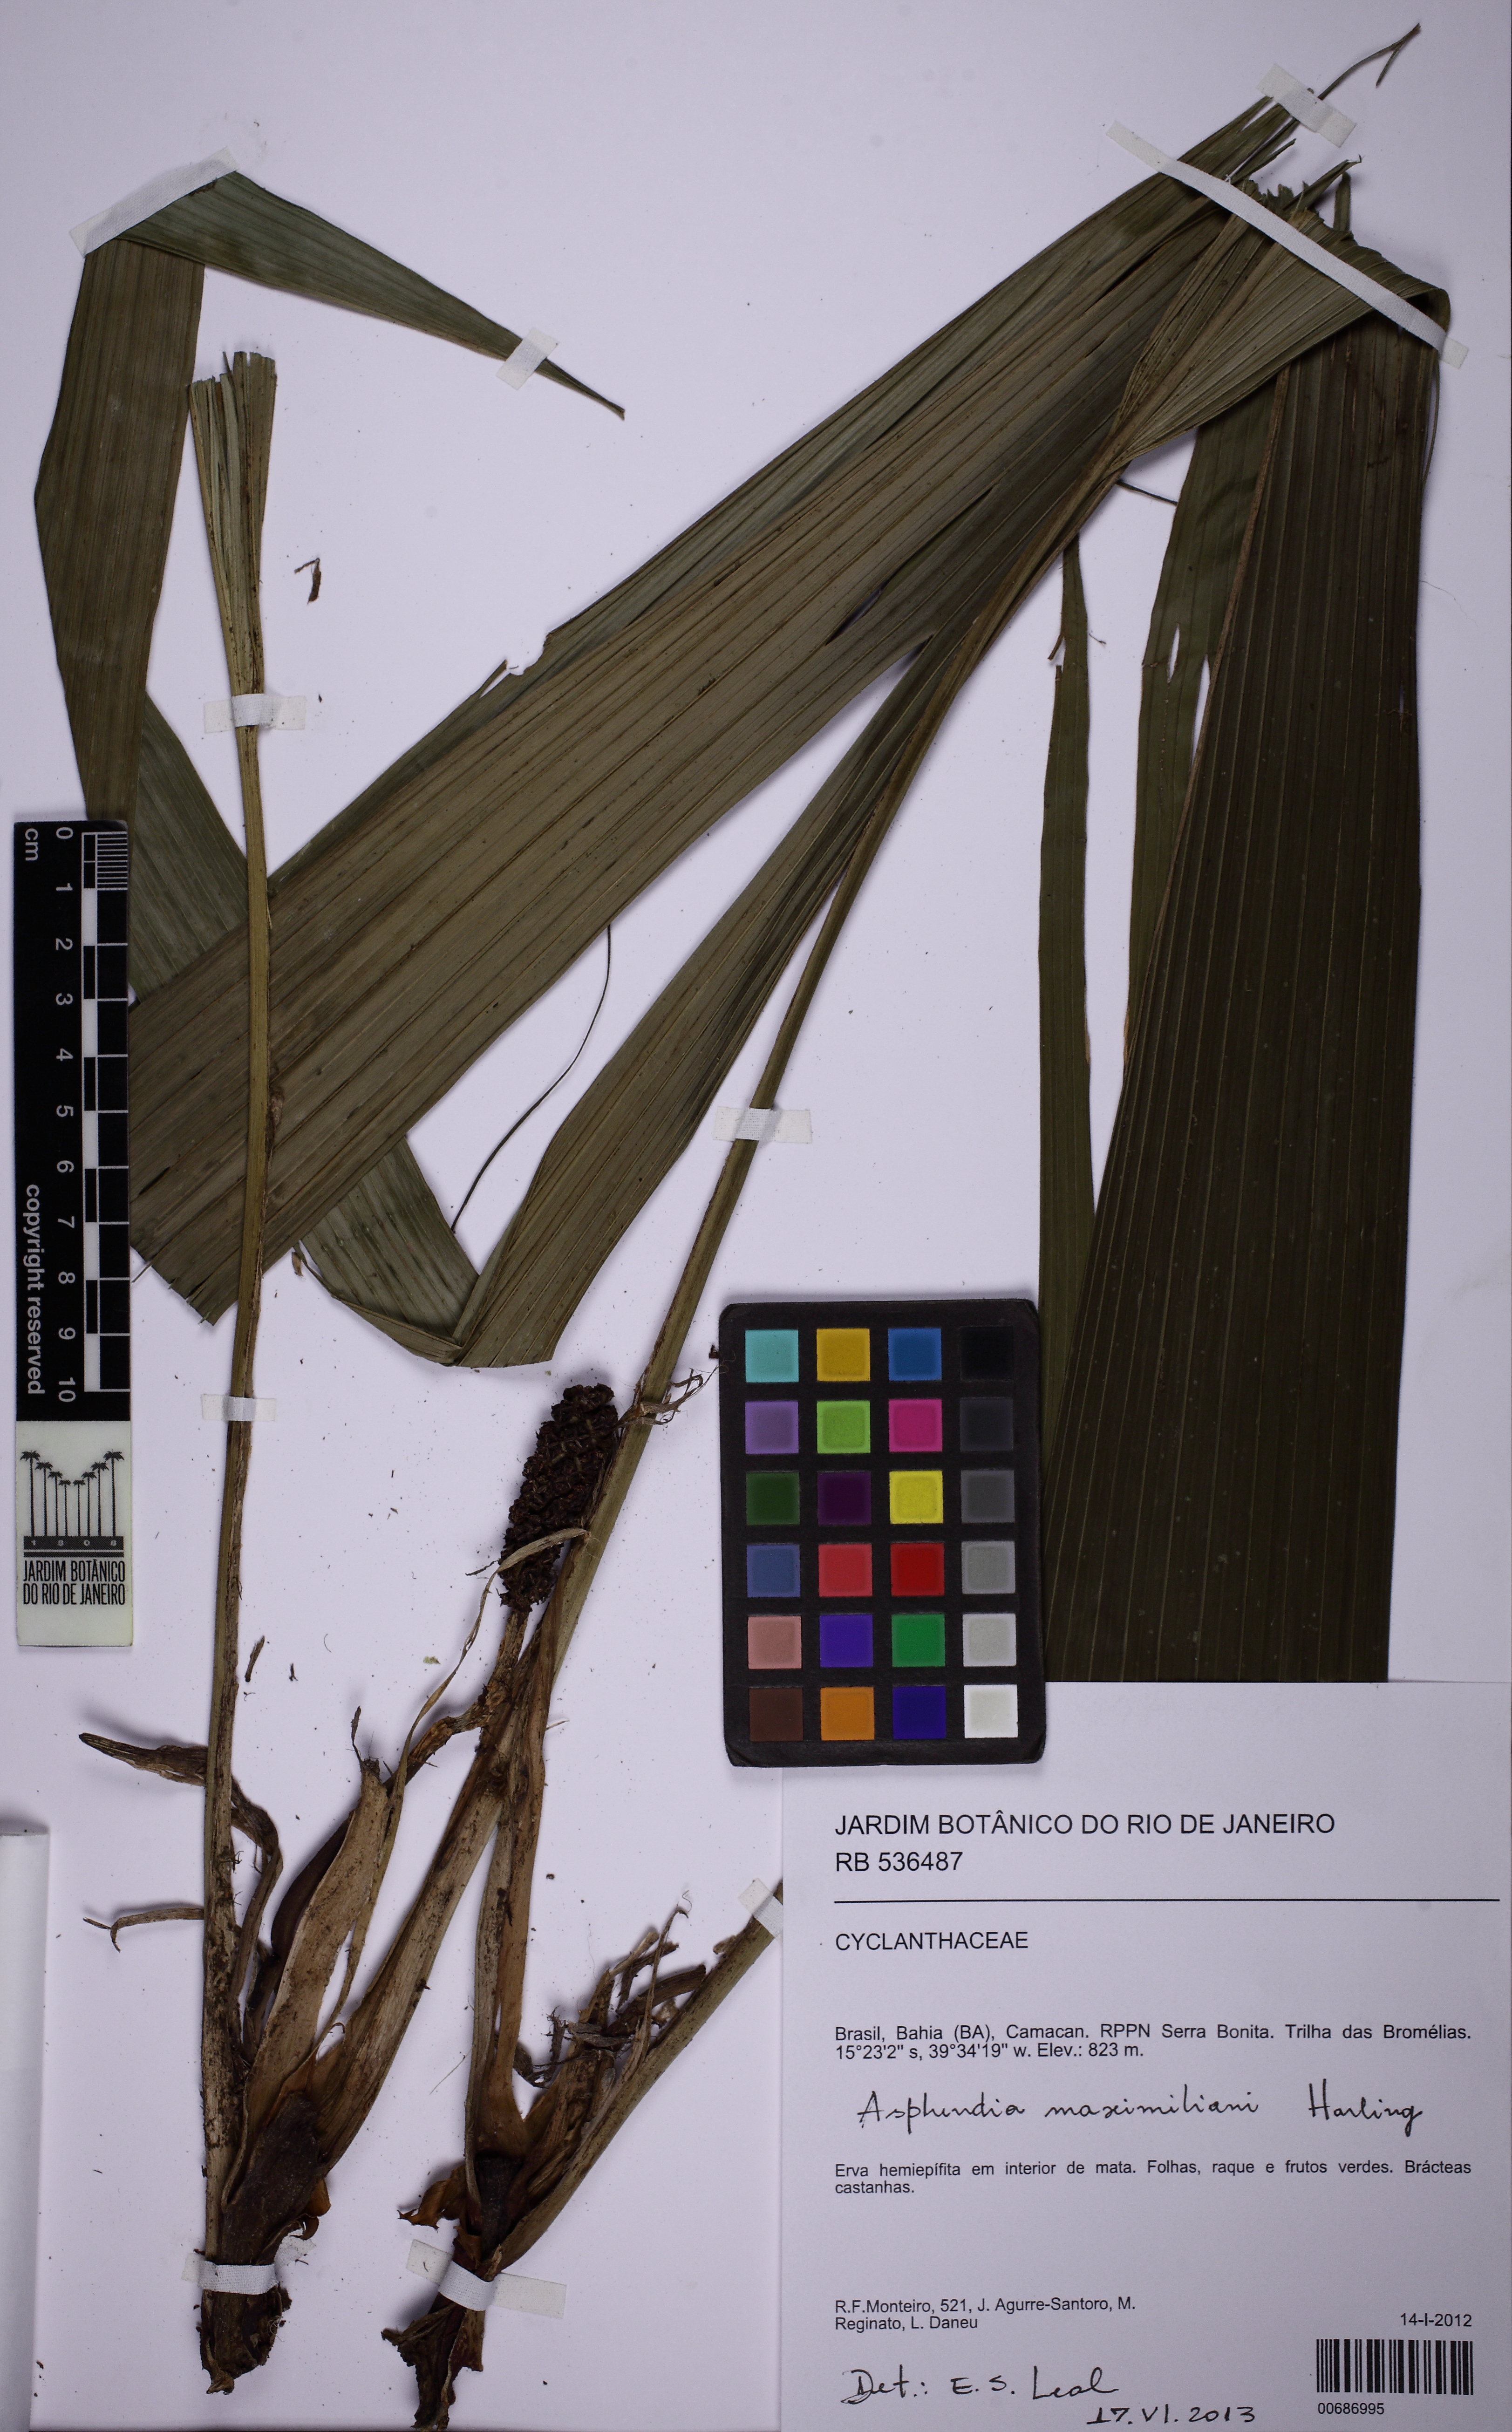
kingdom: Plantae
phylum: Tracheophyta
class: Liliopsida
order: Pandanales
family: Cyclanthaceae
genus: Asplundia
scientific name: Asplundia maximiliani
